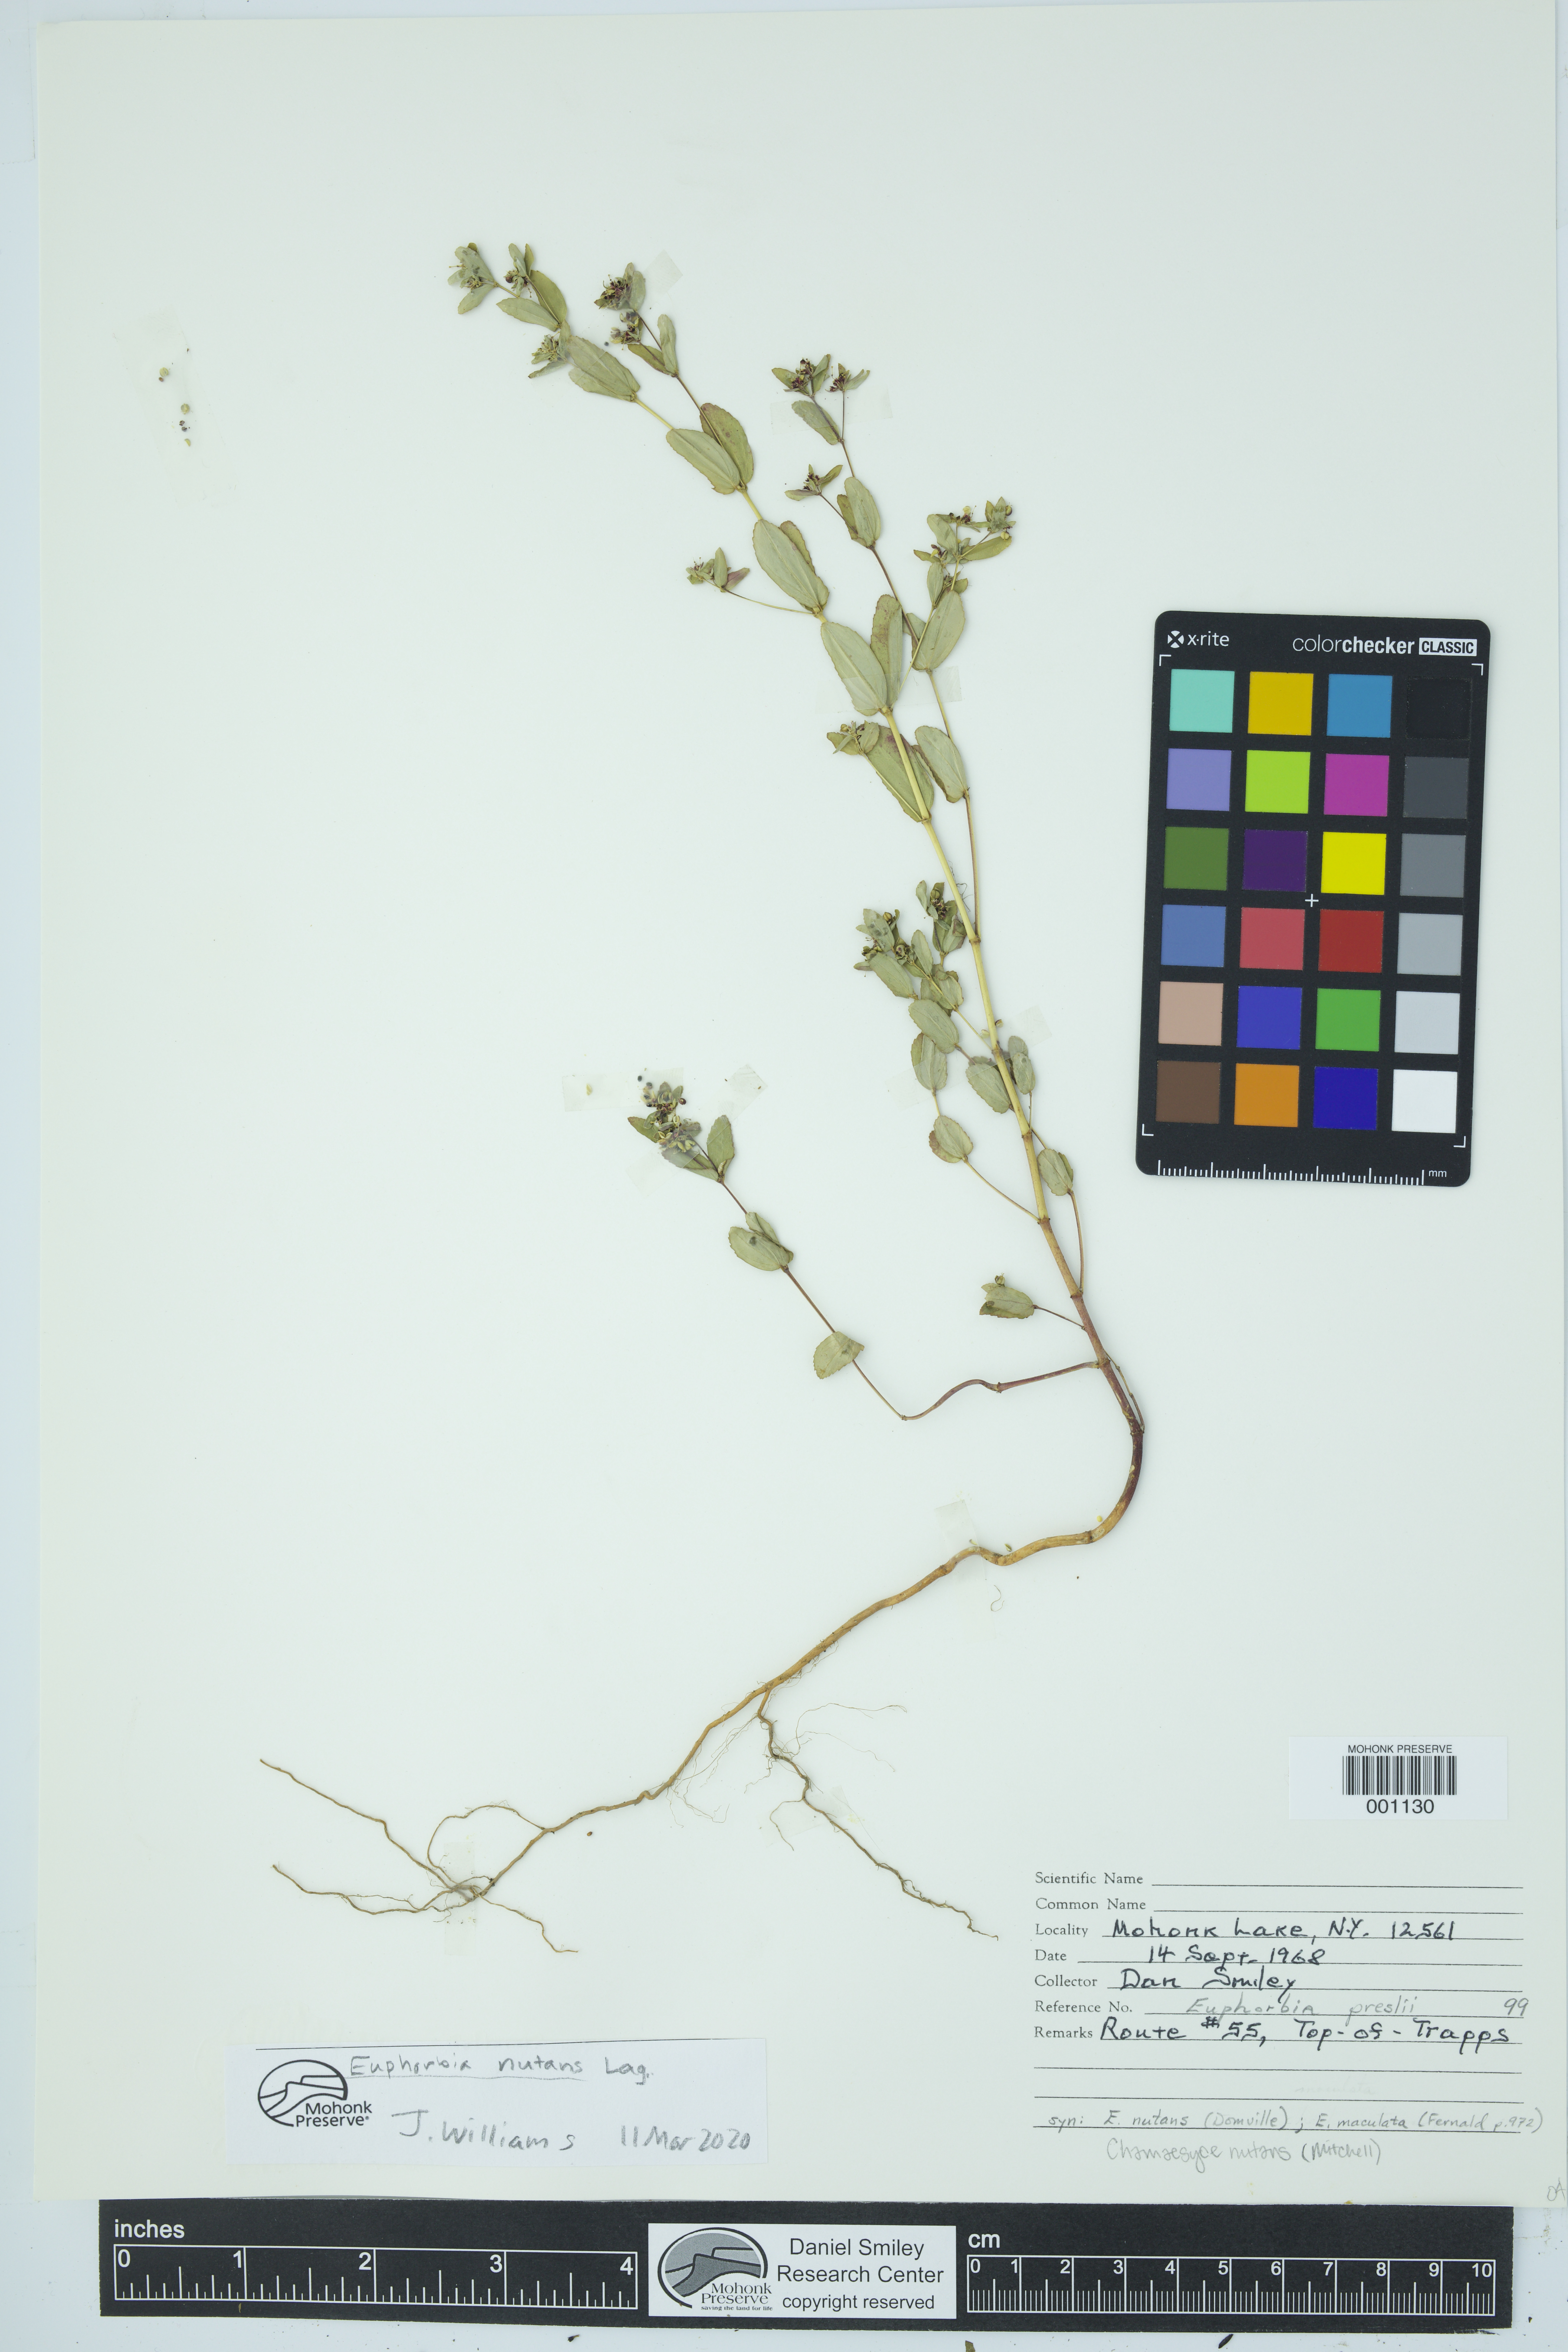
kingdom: Plantae
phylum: Tracheophyta
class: Magnoliopsida
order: Malpighiales
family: Euphorbiaceae
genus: Euphorbia
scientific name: Euphorbia nutans
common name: Eyebane
